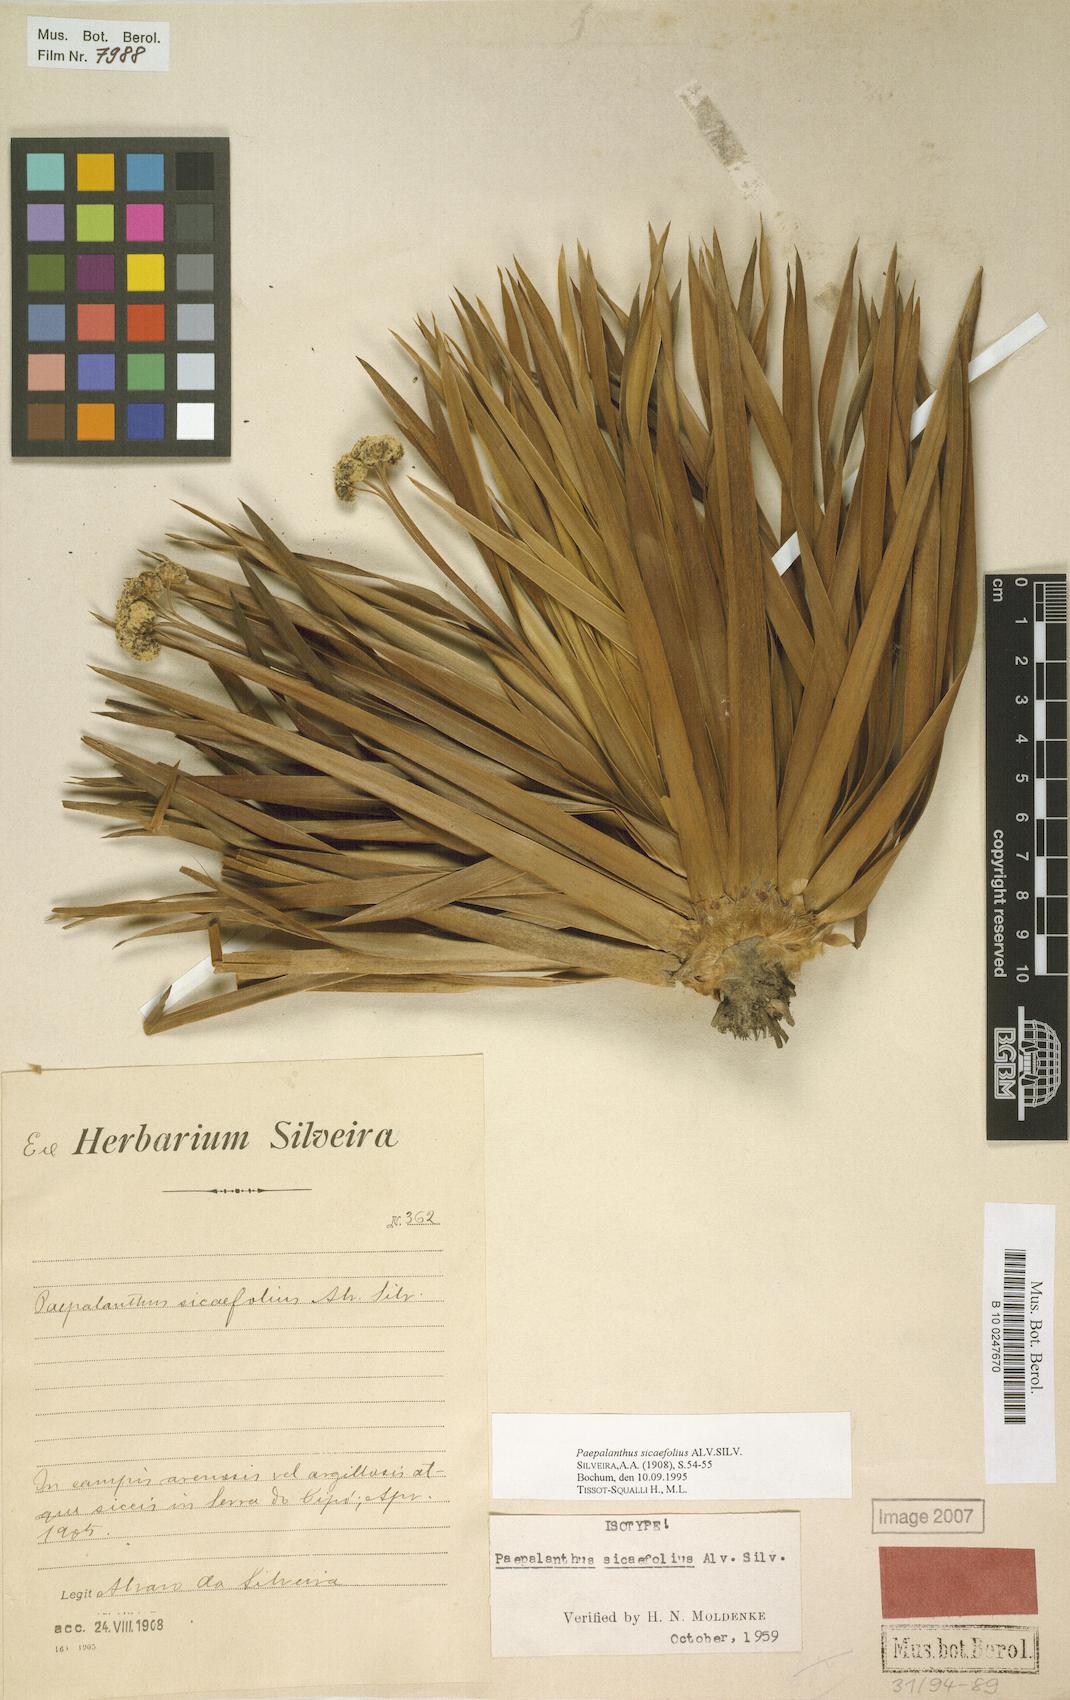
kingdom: Plantae
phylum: Tracheophyta
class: Liliopsida
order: Poales
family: Eriocaulaceae
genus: Paepalanthus
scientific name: Paepalanthus sicaefolius
